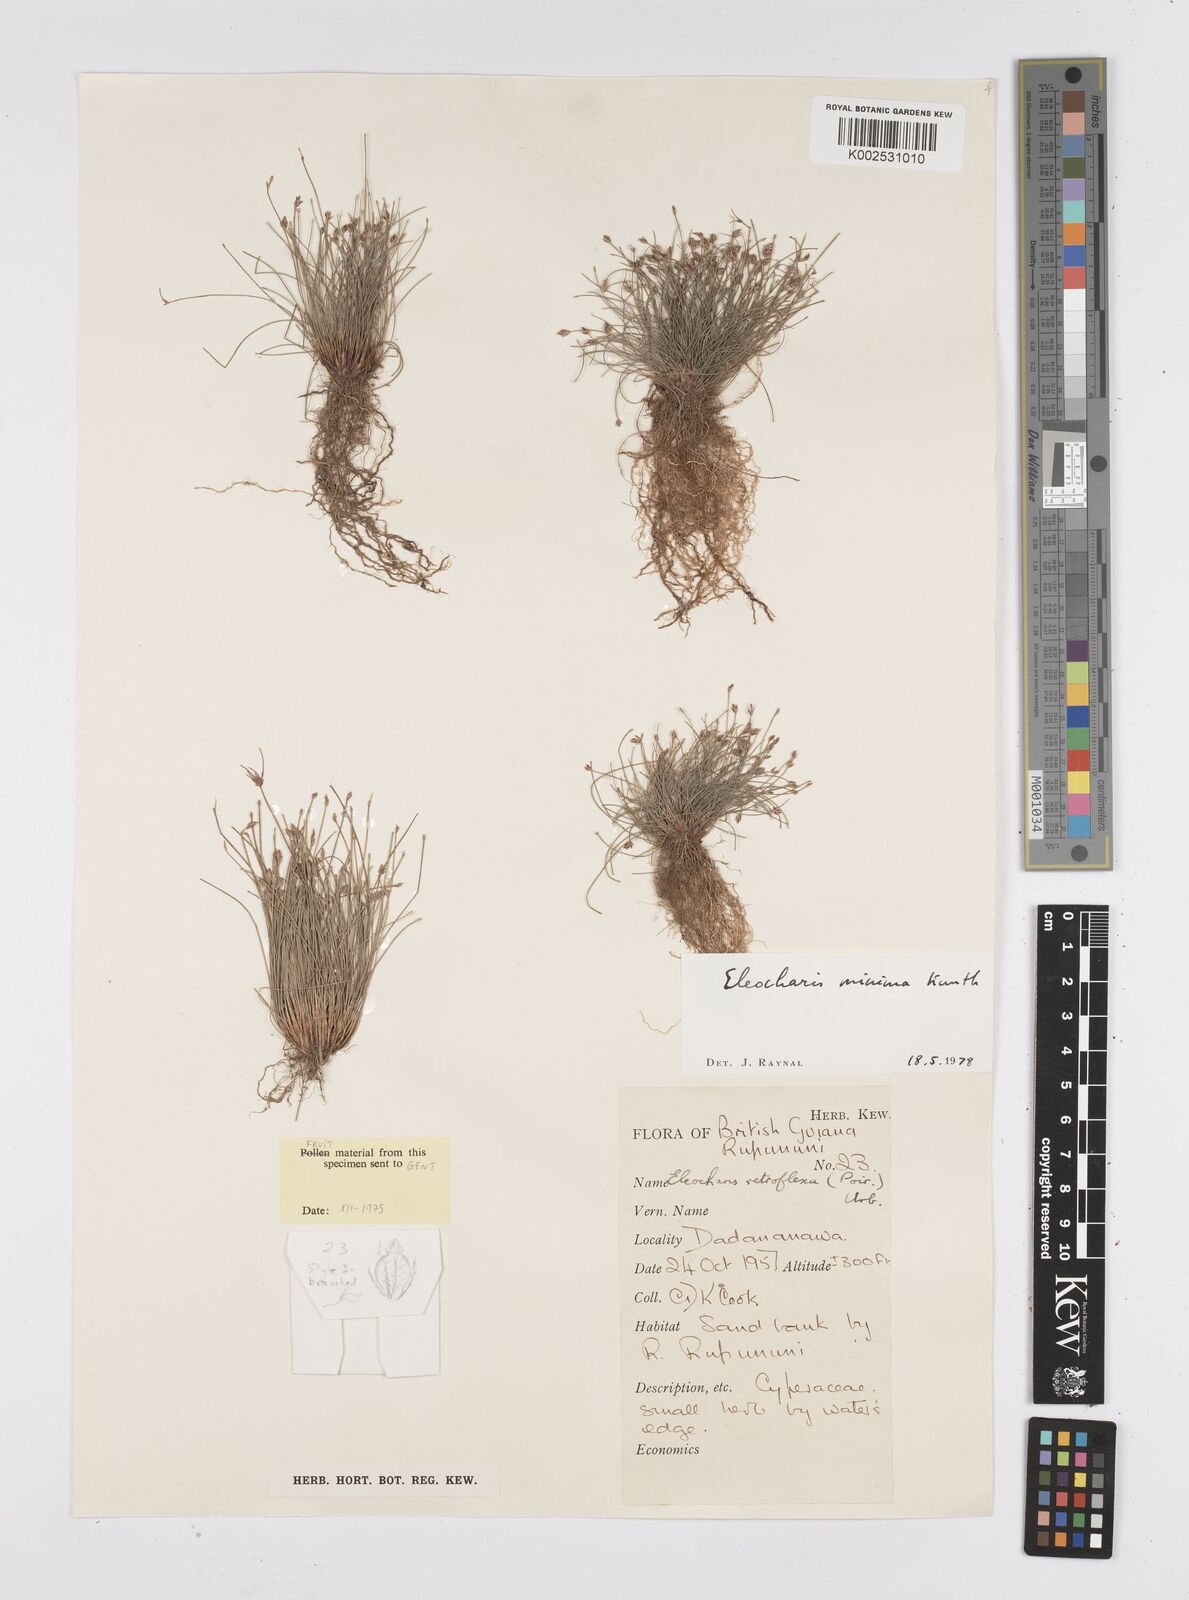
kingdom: Plantae
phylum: Tracheophyta
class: Liliopsida
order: Poales
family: Cyperaceae
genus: Eleocharis
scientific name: Eleocharis minima
